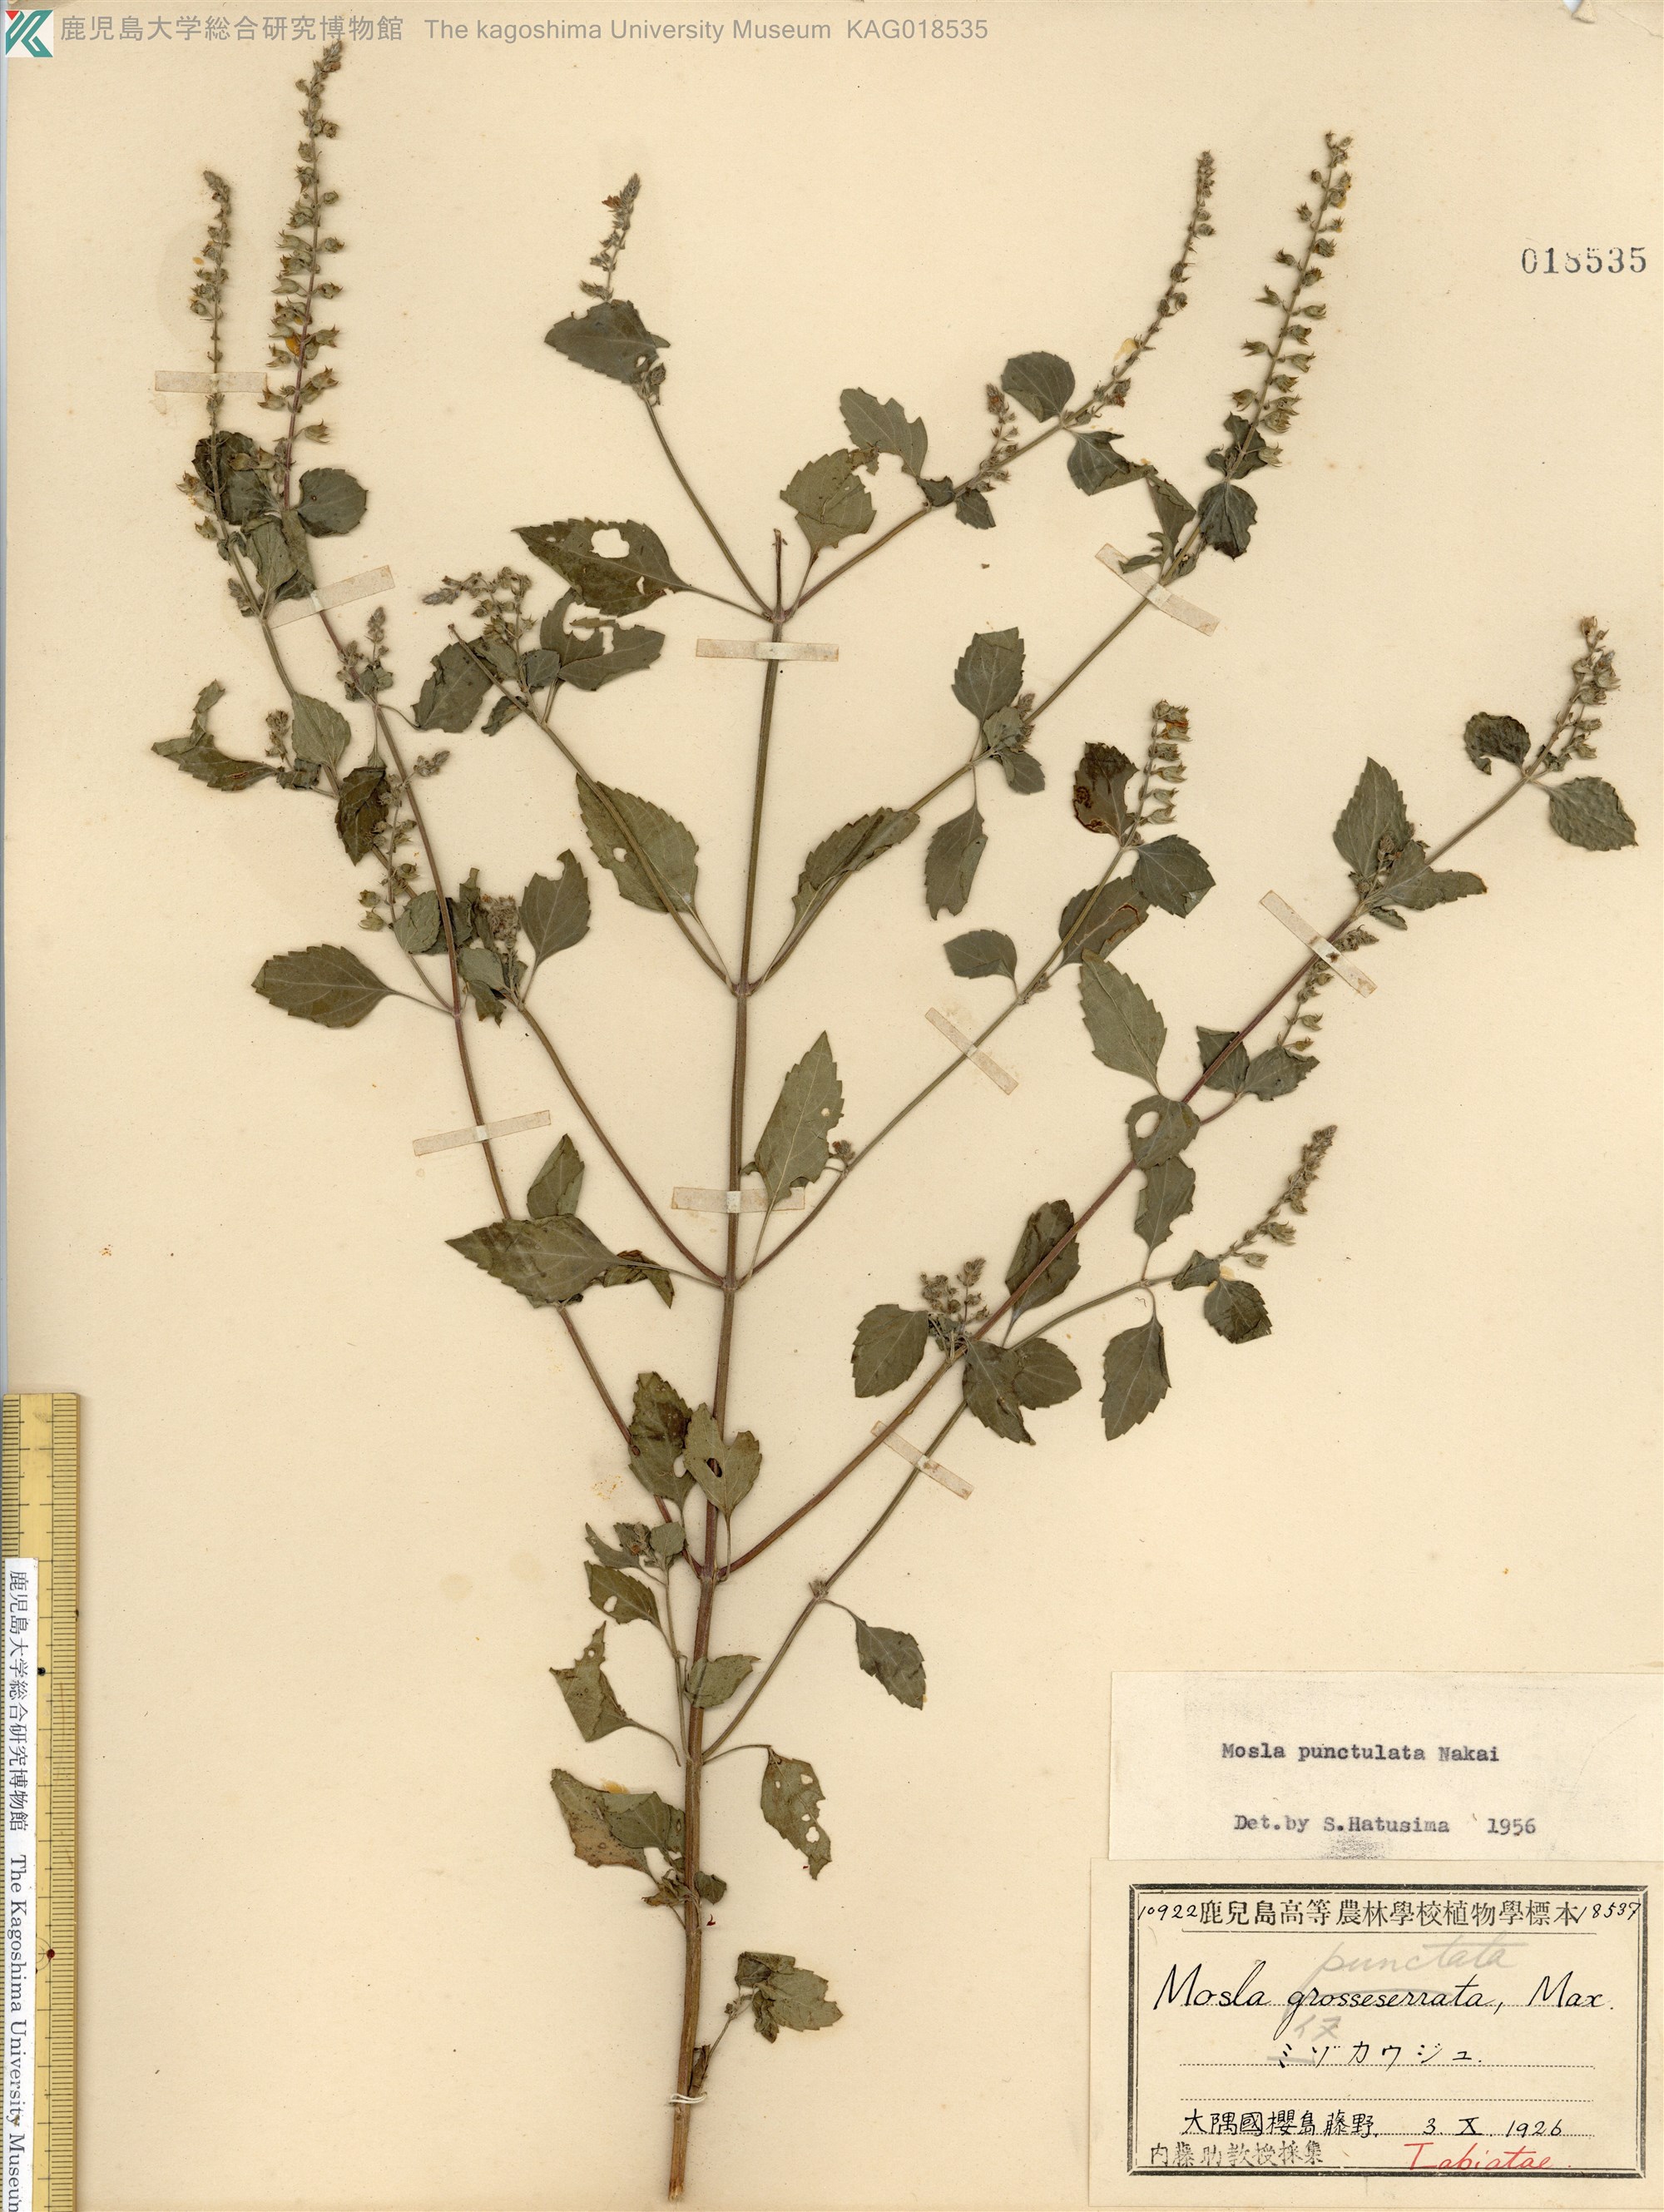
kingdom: Plantae
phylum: Tracheophyta
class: Magnoliopsida
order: Lamiales
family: Lamiaceae
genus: Mosla
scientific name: Mosla scabra
